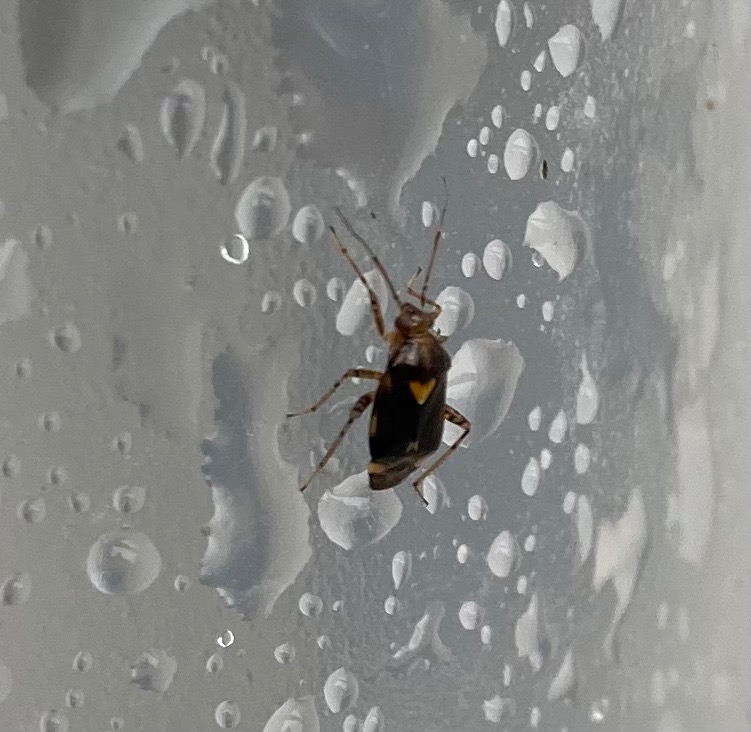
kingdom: Animalia
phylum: Arthropoda
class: Insecta
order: Hemiptera
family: Miridae
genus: Liocoris
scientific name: Liocoris tripustulatus
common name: Treplettet nældetæge
